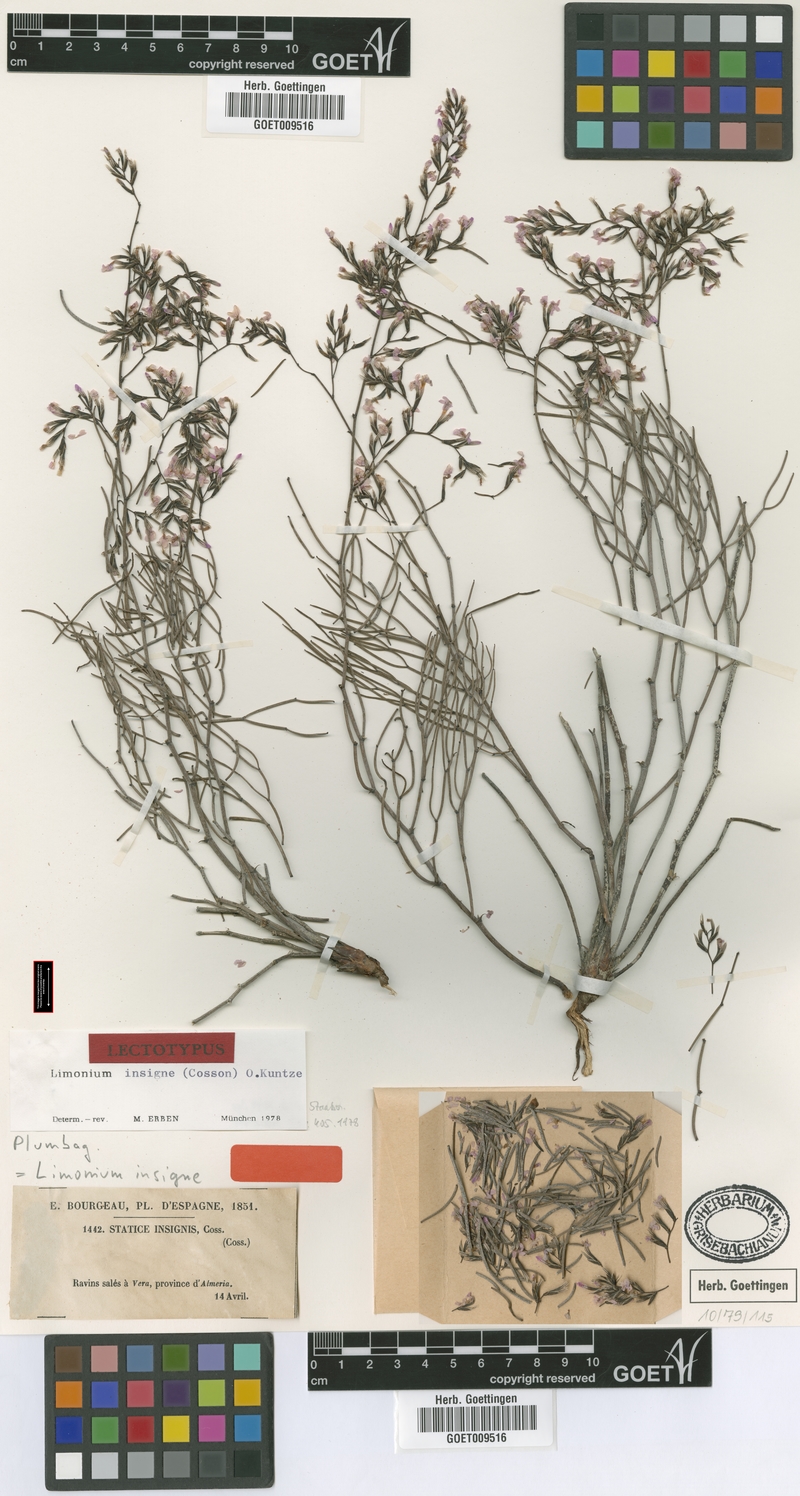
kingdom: Plantae
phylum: Tracheophyta
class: Magnoliopsida
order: Caryophyllales
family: Plumbaginaceae
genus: Limonium
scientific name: Limonium insigne
